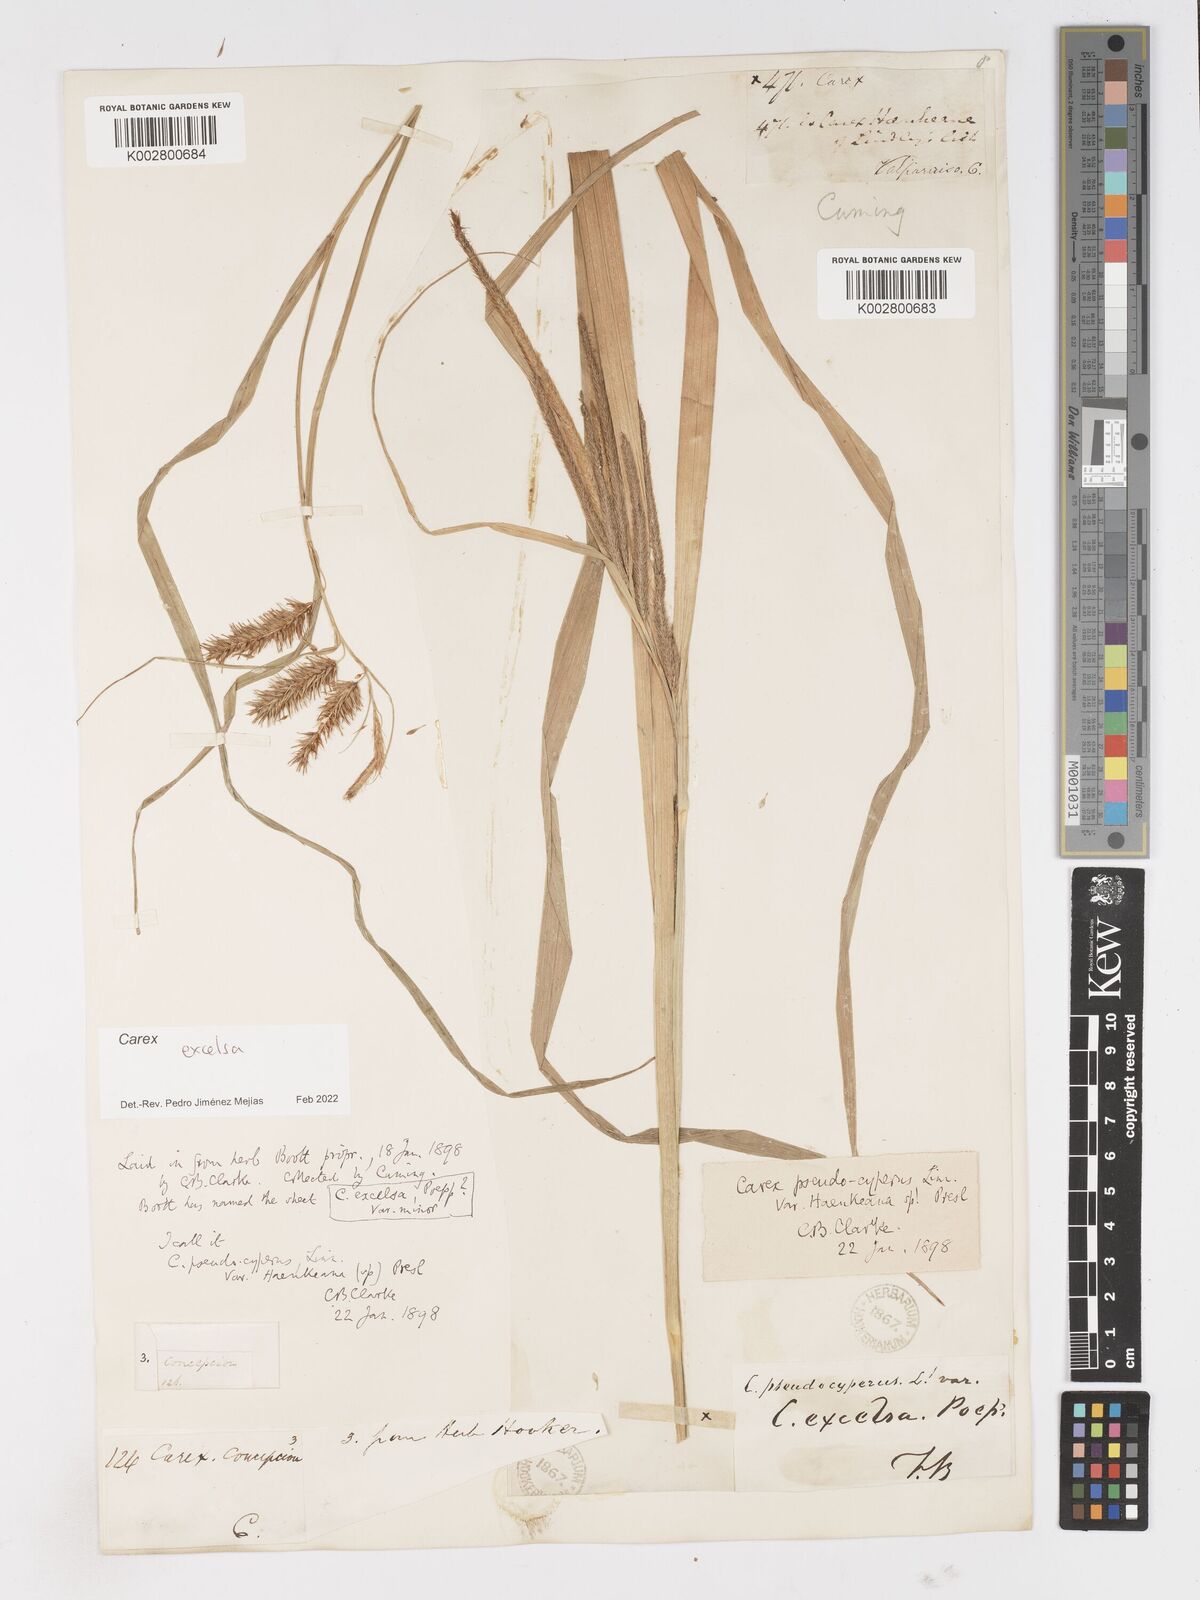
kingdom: Plantae
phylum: Tracheophyta
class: Liliopsida
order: Poales
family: Cyperaceae
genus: Carex
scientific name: Carex excelsa
